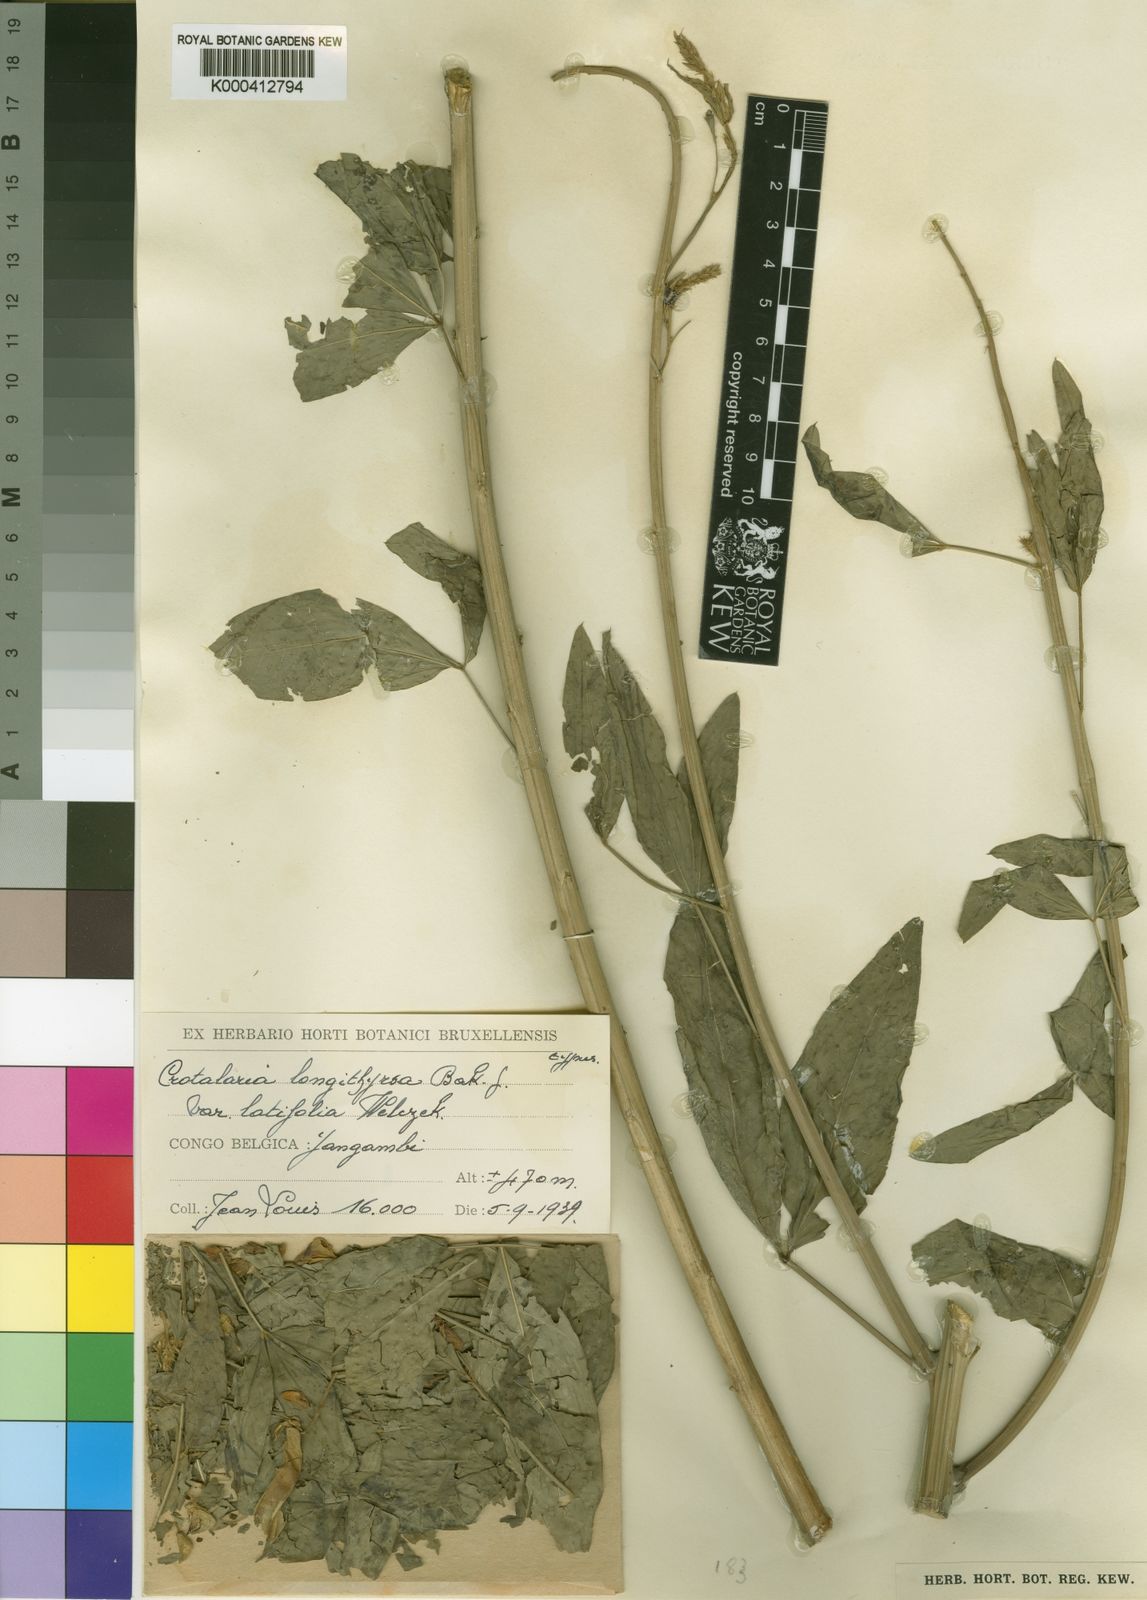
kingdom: Plantae
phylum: Tracheophyta
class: Magnoliopsida
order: Fabales
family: Fabaceae
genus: Crotalaria
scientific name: Crotalaria germainii
